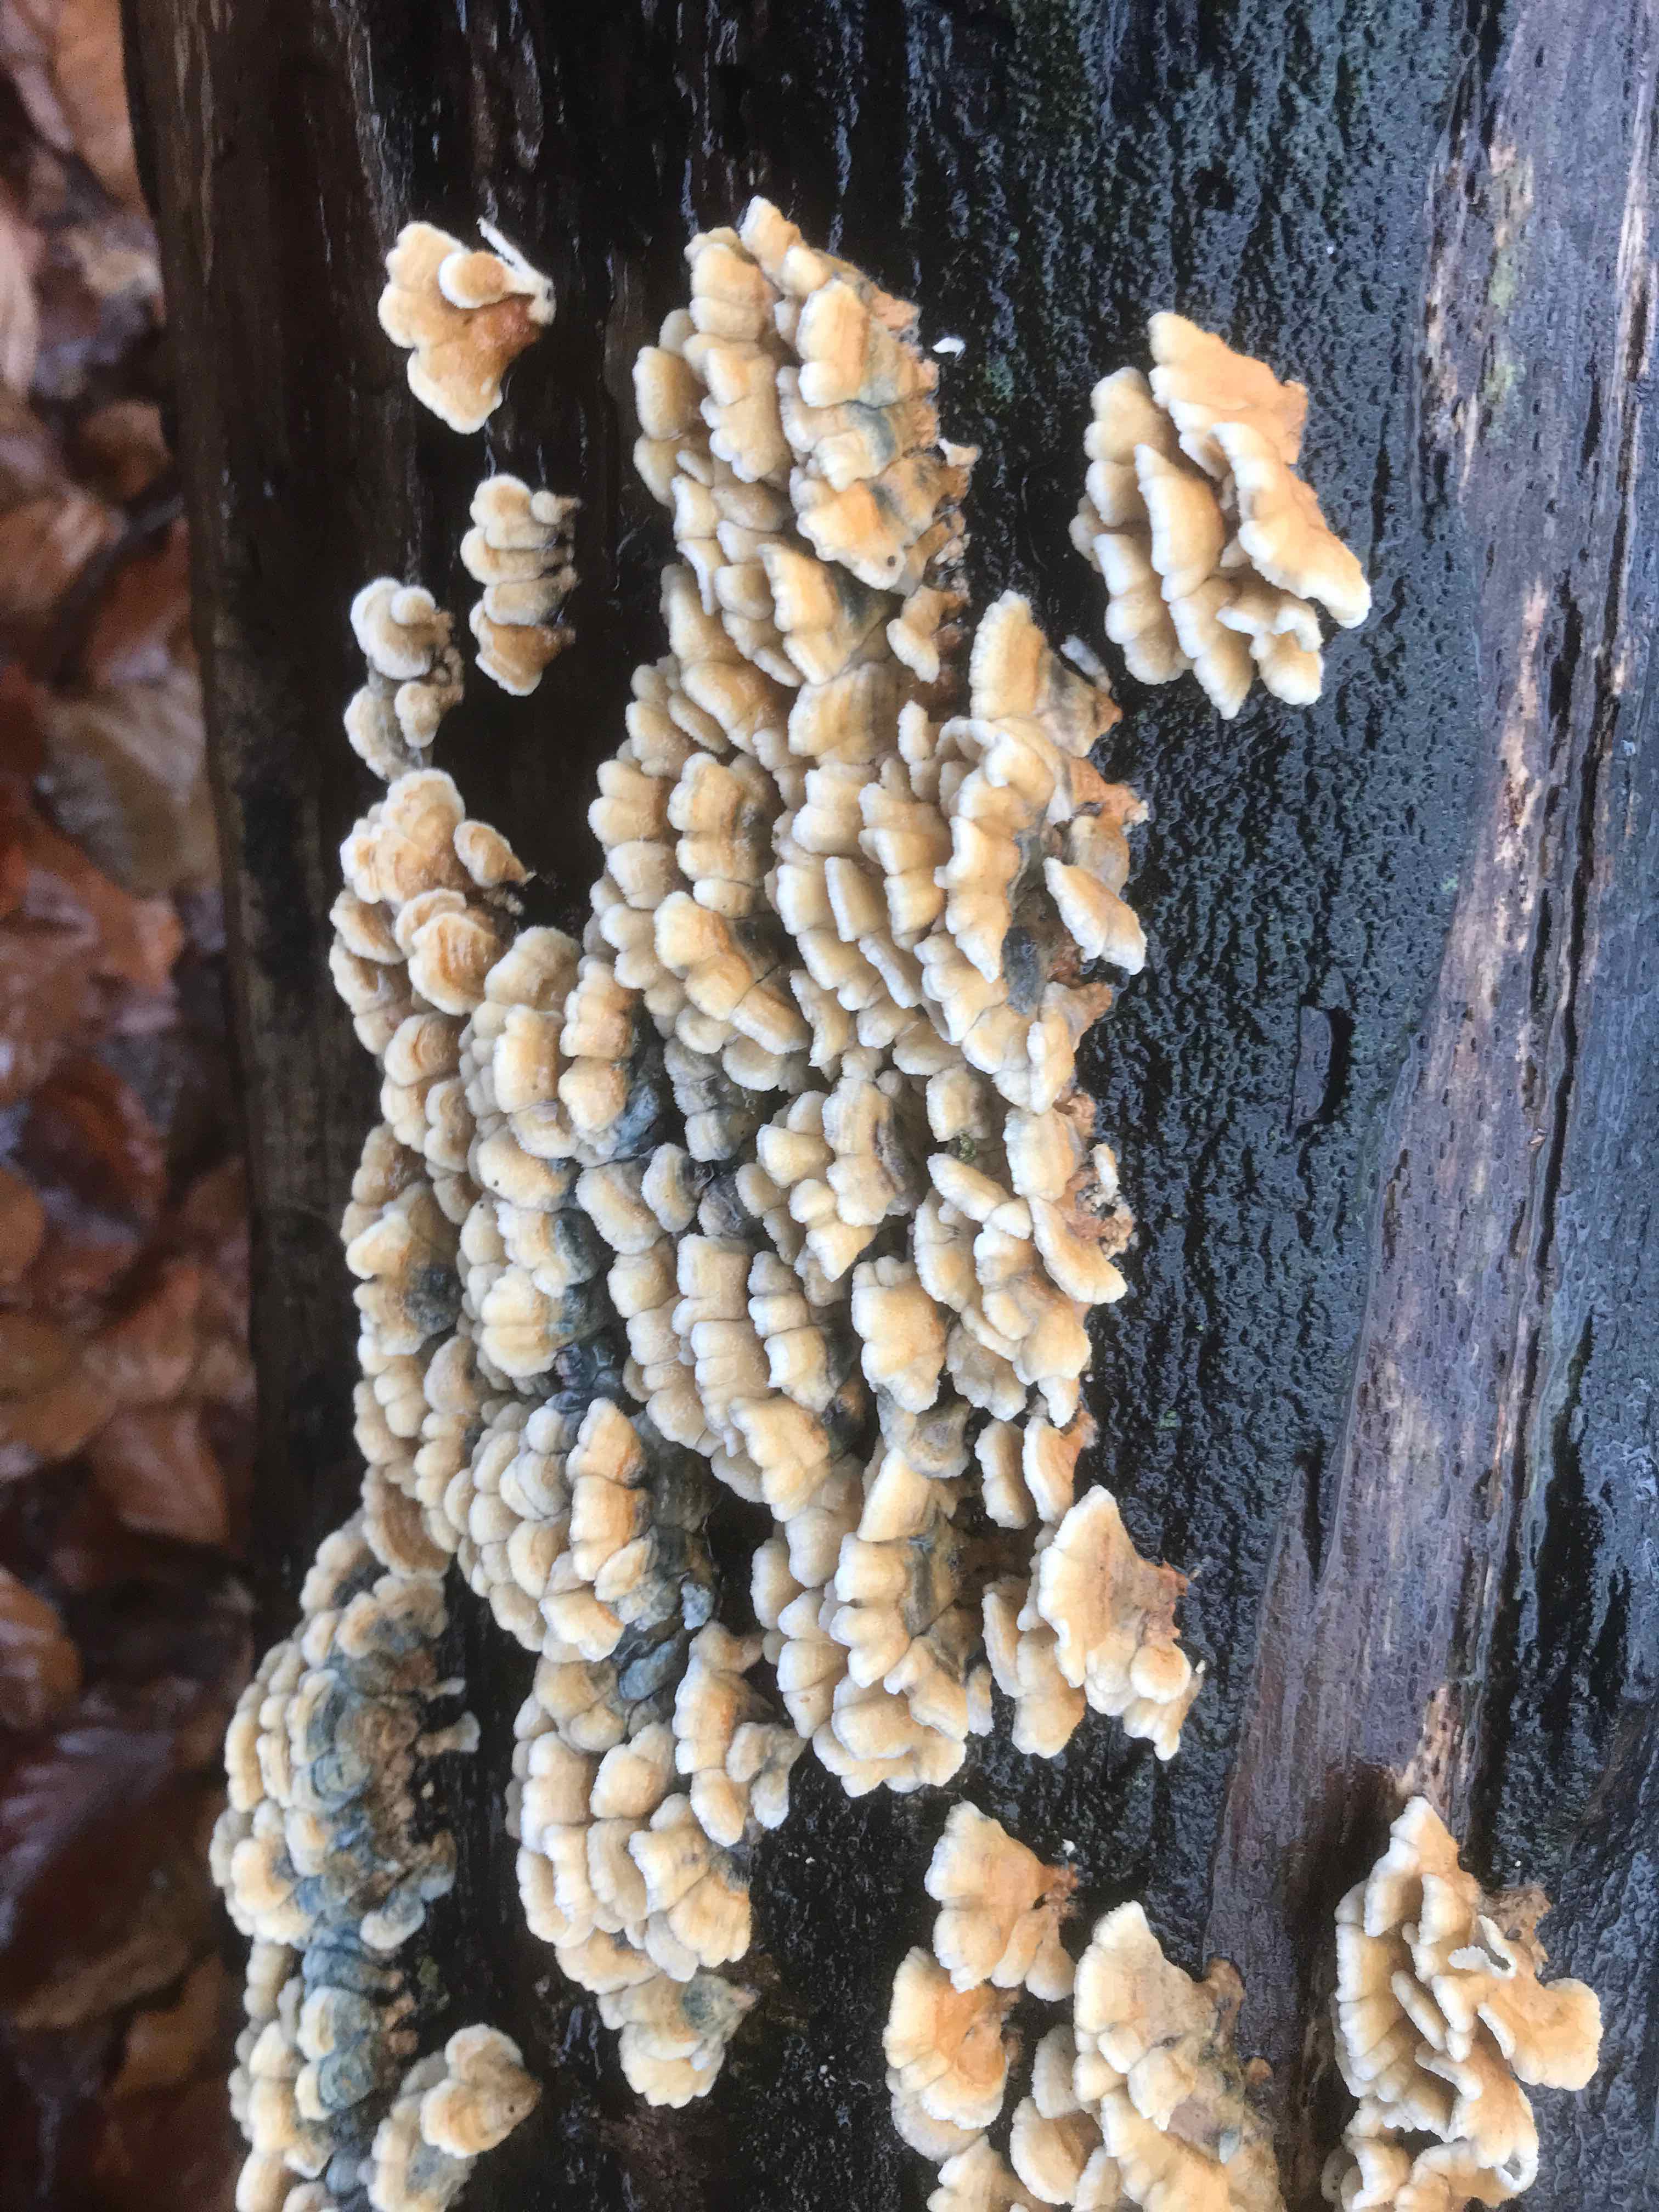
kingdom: Fungi
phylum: Basidiomycota
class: Agaricomycetes
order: Amylocorticiales
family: Amylocorticiaceae
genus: Plicaturopsis
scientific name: Plicaturopsis crispa
